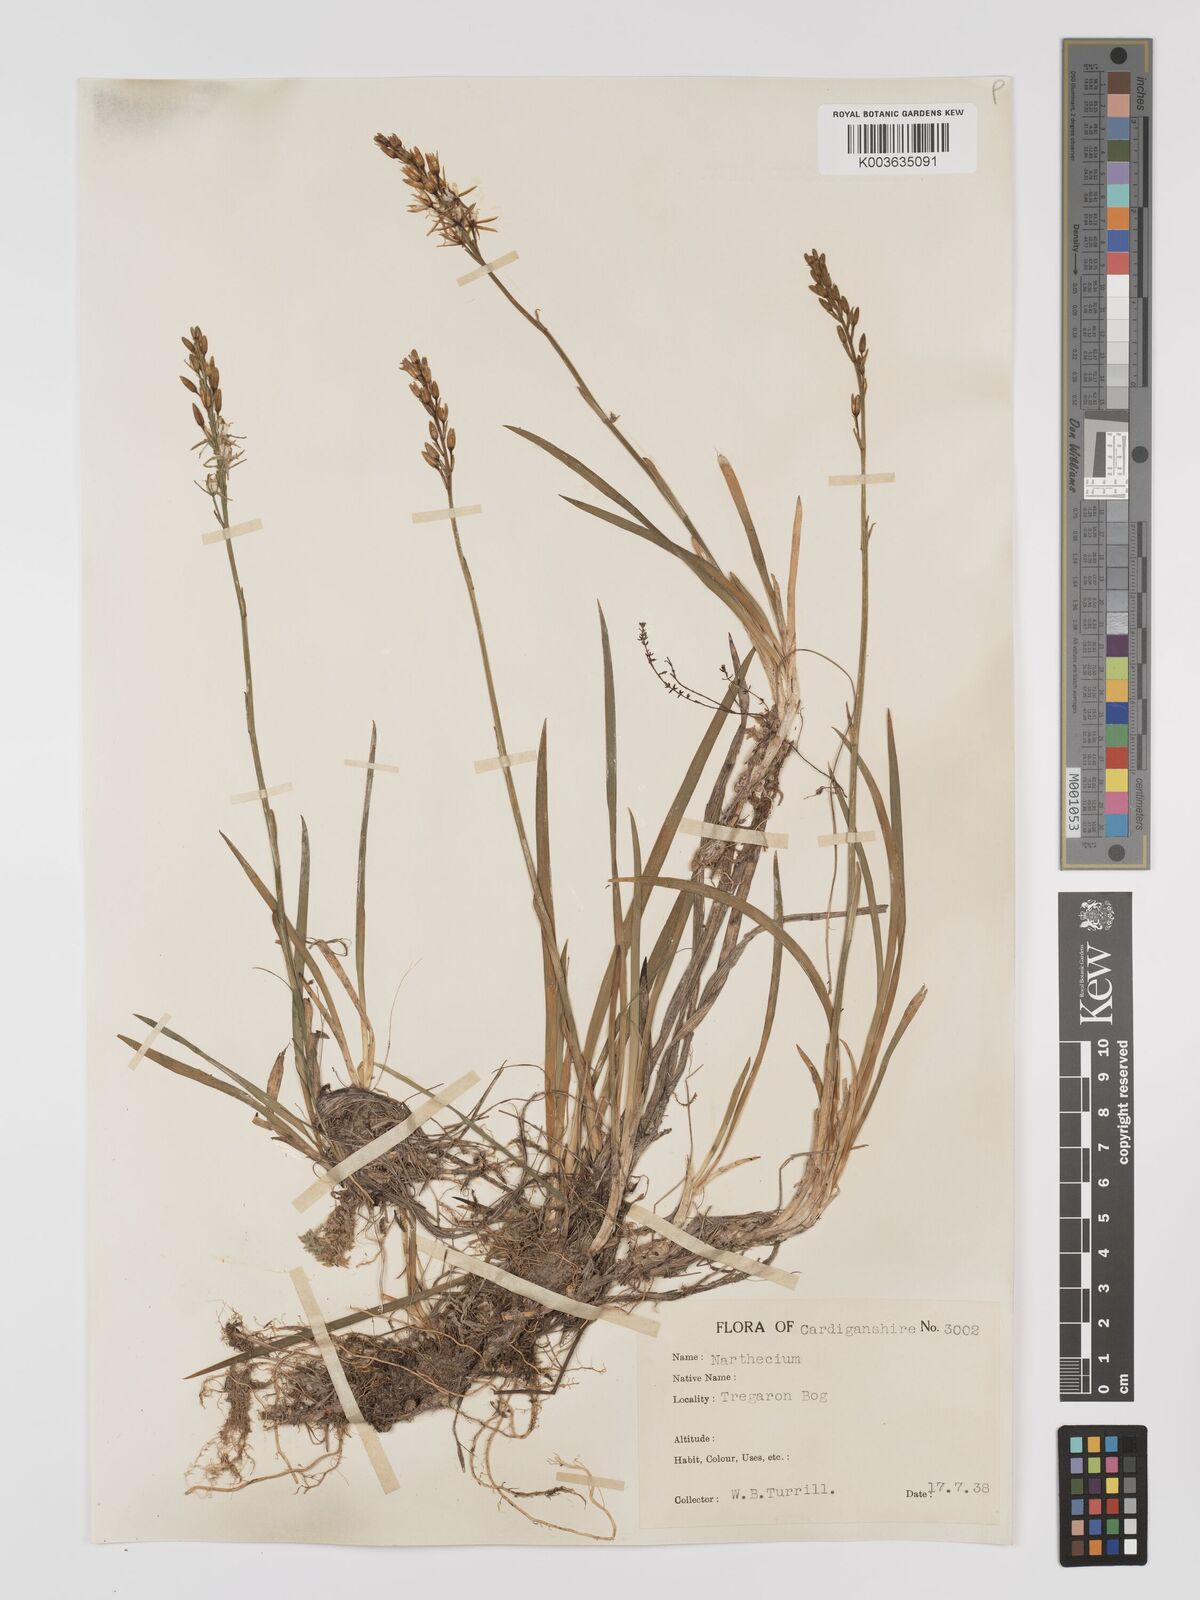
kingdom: Plantae
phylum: Tracheophyta
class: Liliopsida
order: Dioscoreales
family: Nartheciaceae
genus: Narthecium
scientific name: Narthecium
